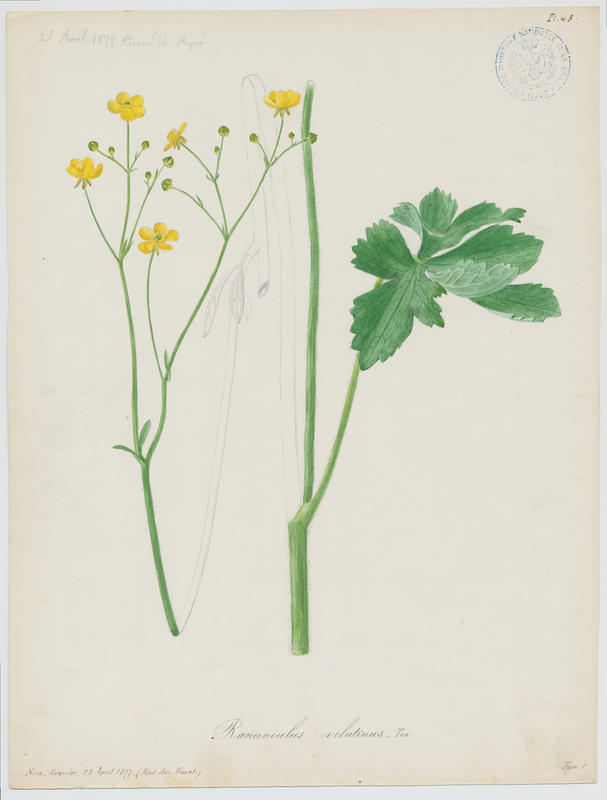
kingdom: Plantae
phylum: Tracheophyta
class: Magnoliopsida
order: Ranunculales
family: Ranunculaceae
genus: Ranunculus
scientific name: Ranunculus velutinus
